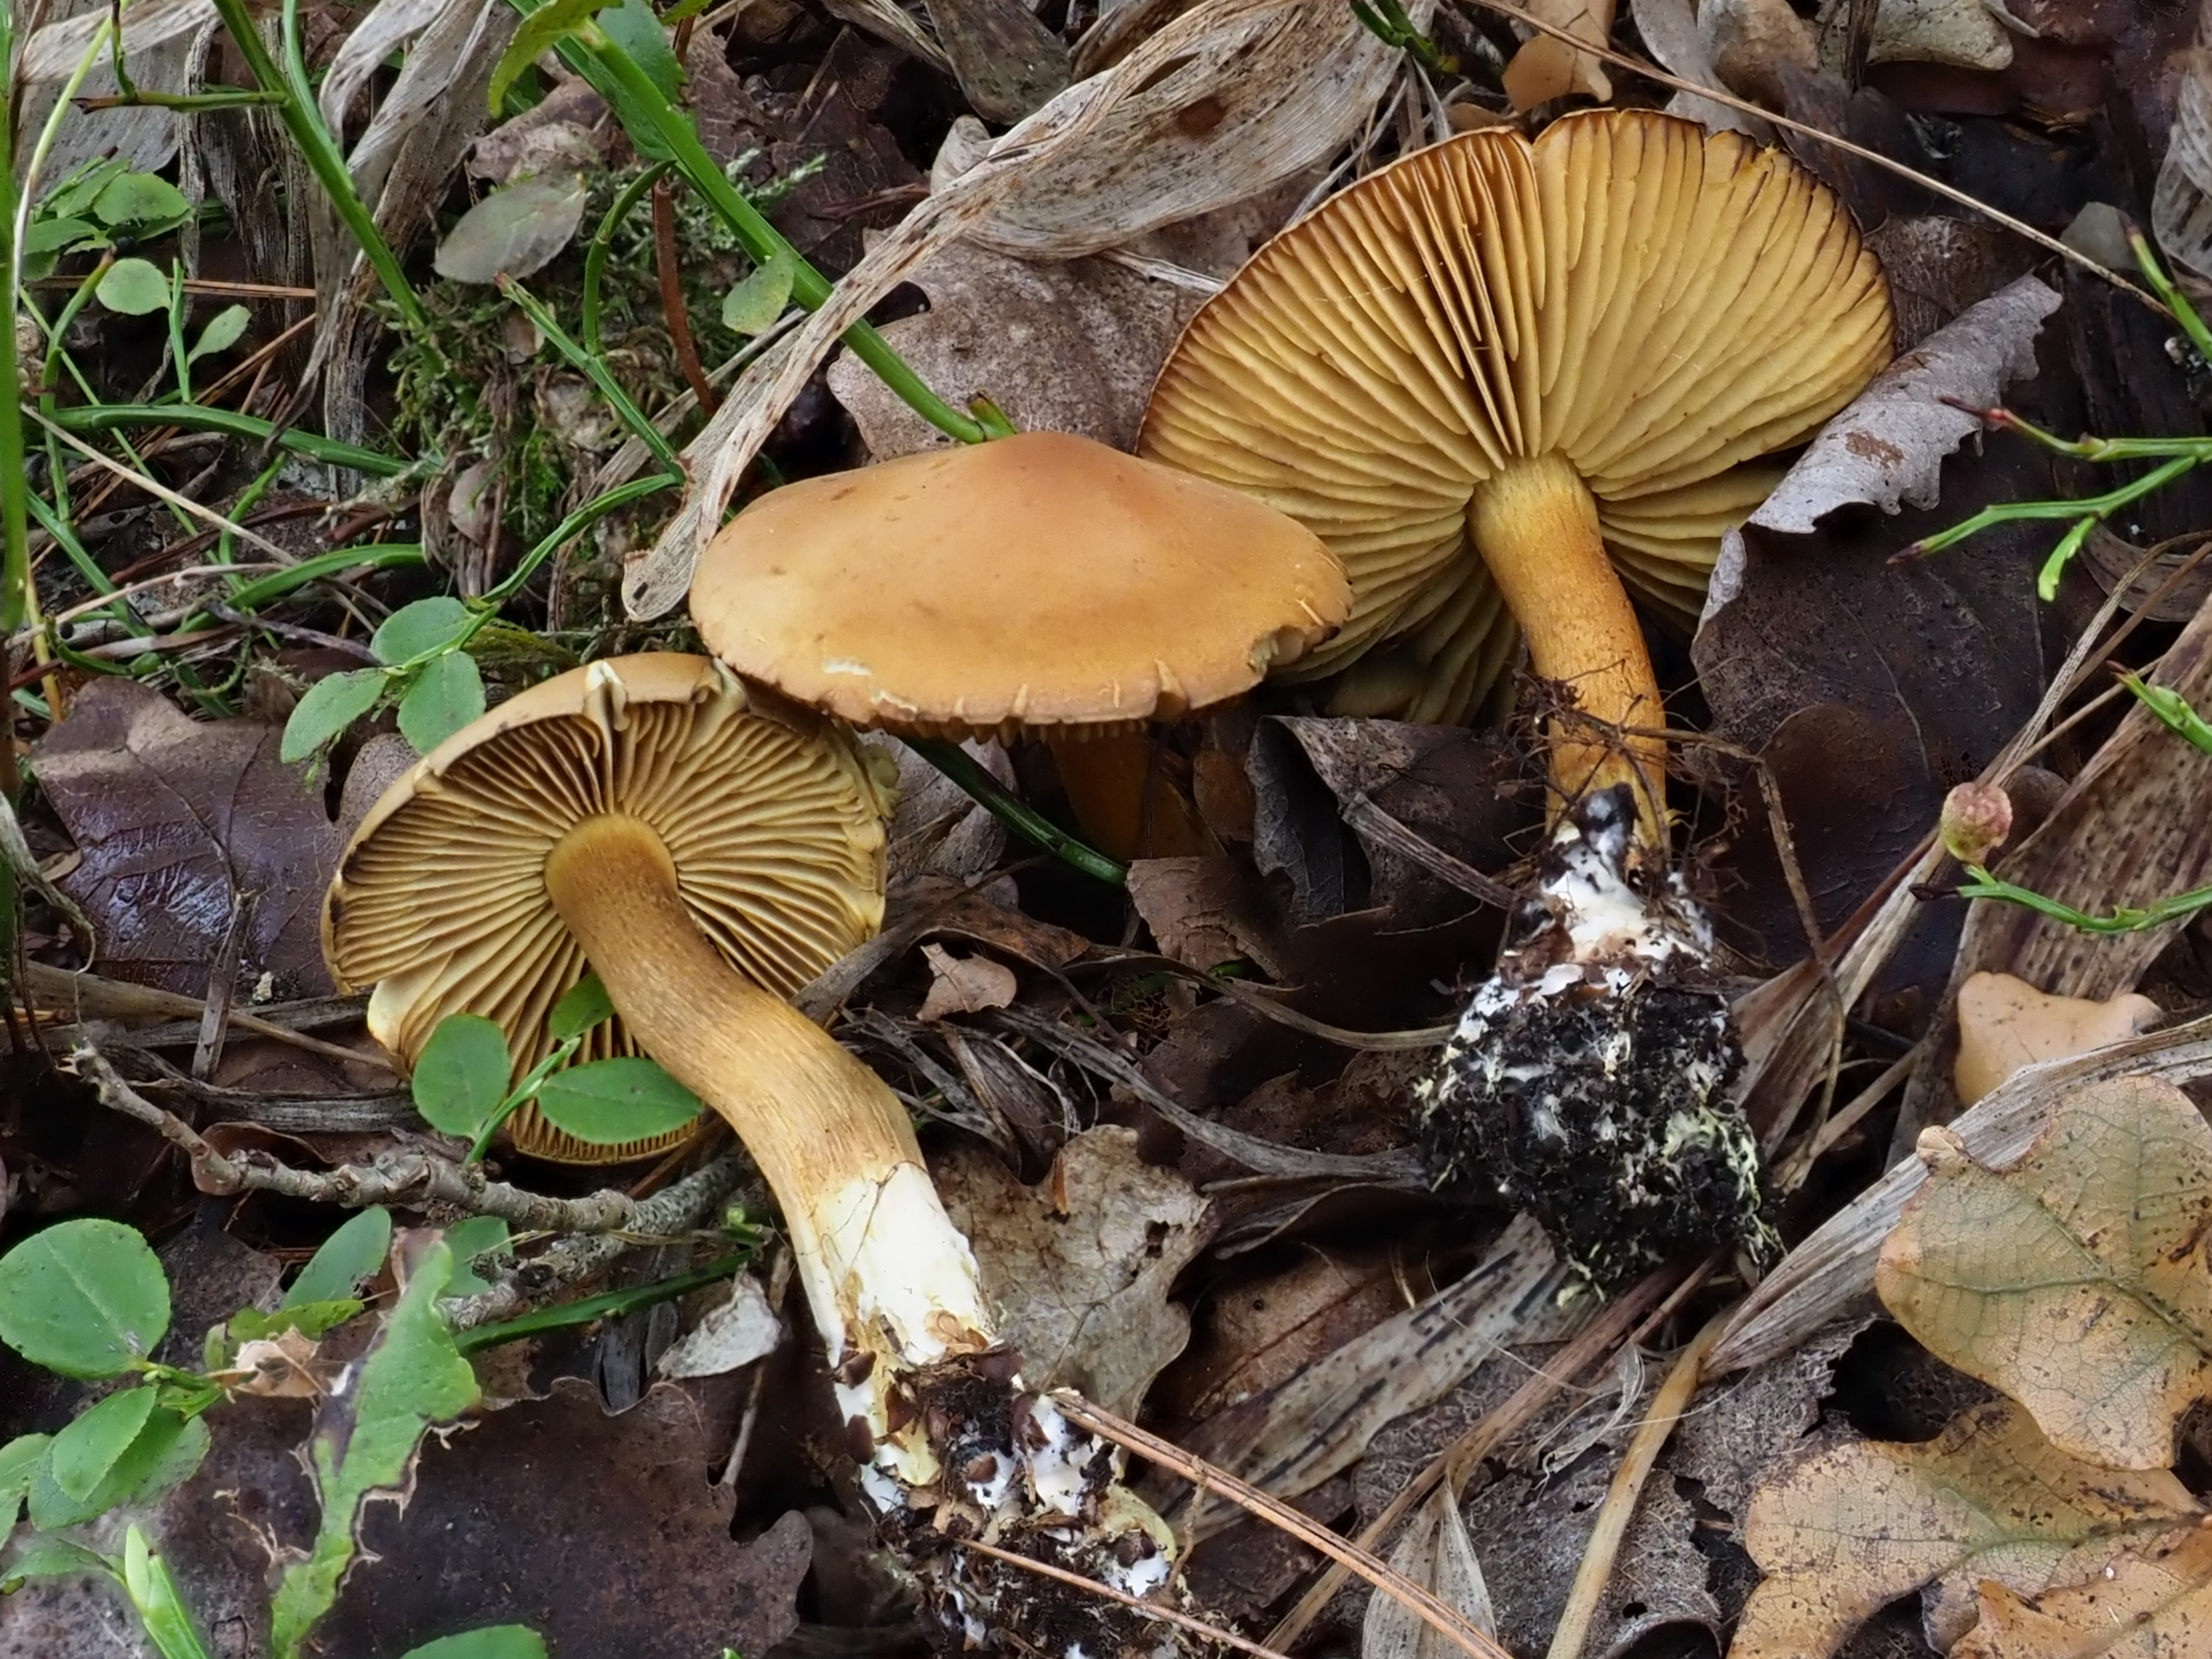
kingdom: Fungi
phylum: Basidiomycota
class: Agaricomycetes
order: Agaricales
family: Tricholomataceae
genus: Tricholoma
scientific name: Tricholoma sulphureum
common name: Stinky knight
